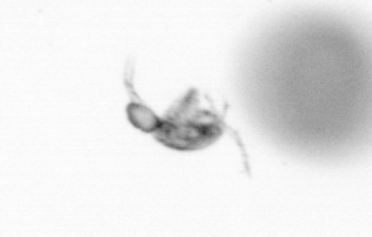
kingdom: Animalia
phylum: Arthropoda
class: Copepoda
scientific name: Copepoda
